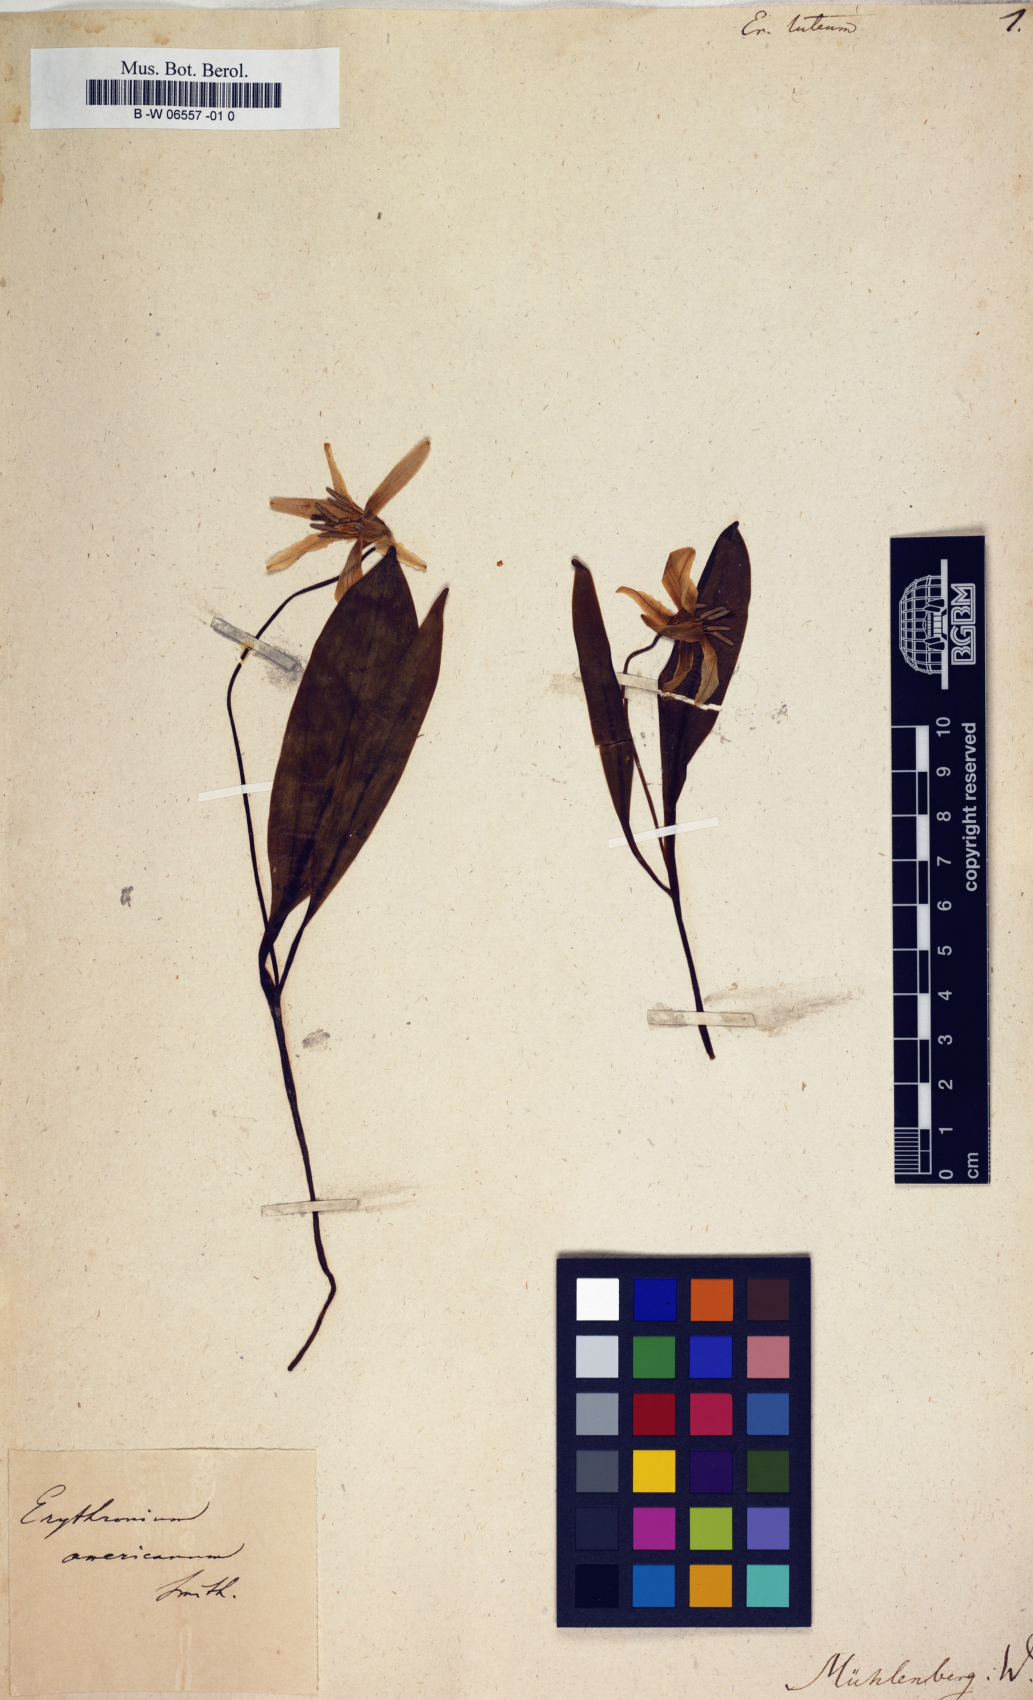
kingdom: Plantae
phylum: Tracheophyta
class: Liliopsida
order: Liliales
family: Liliaceae
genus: Erythronium
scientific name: Erythronium
